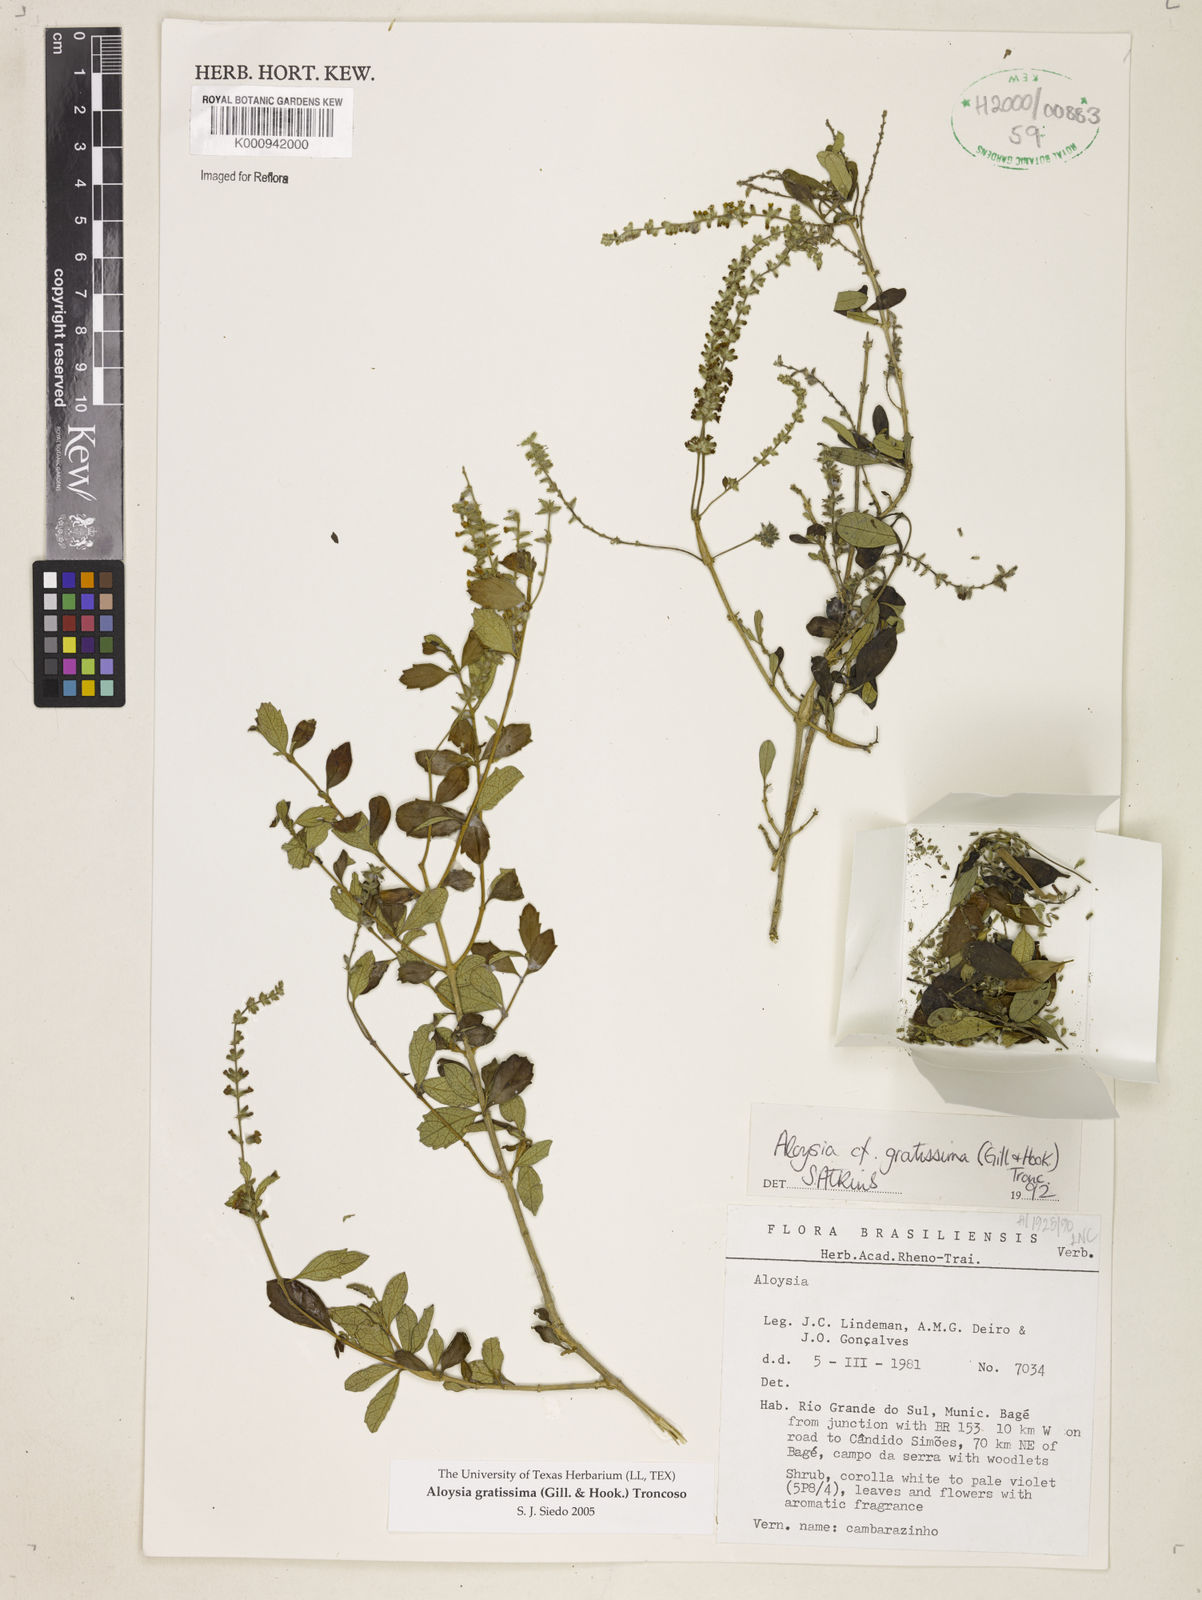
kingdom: Plantae
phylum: Tracheophyta
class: Magnoliopsida
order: Lamiales
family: Verbenaceae
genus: Aloysia
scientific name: Aloysia gratissima
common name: Common bee-brush
